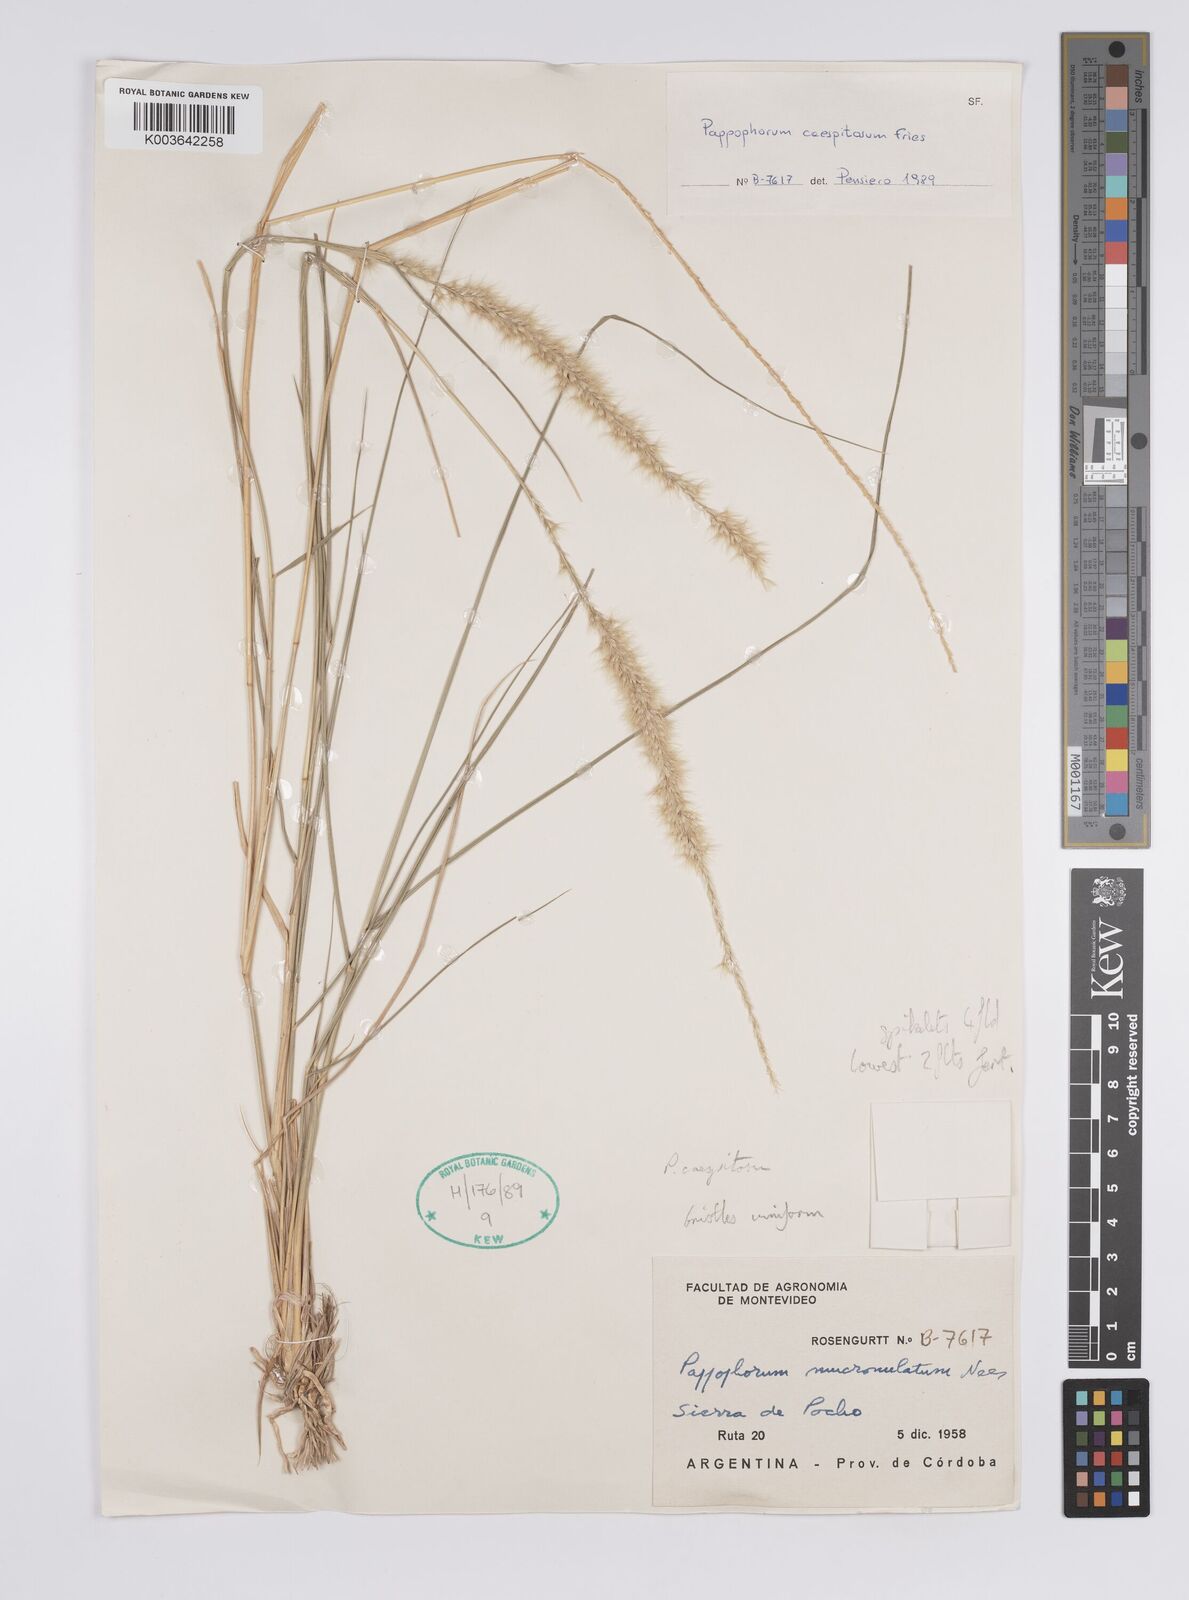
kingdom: Plantae
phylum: Tracheophyta
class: Liliopsida
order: Poales
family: Poaceae
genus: Pappophorum
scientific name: Pappophorum caespitosum
